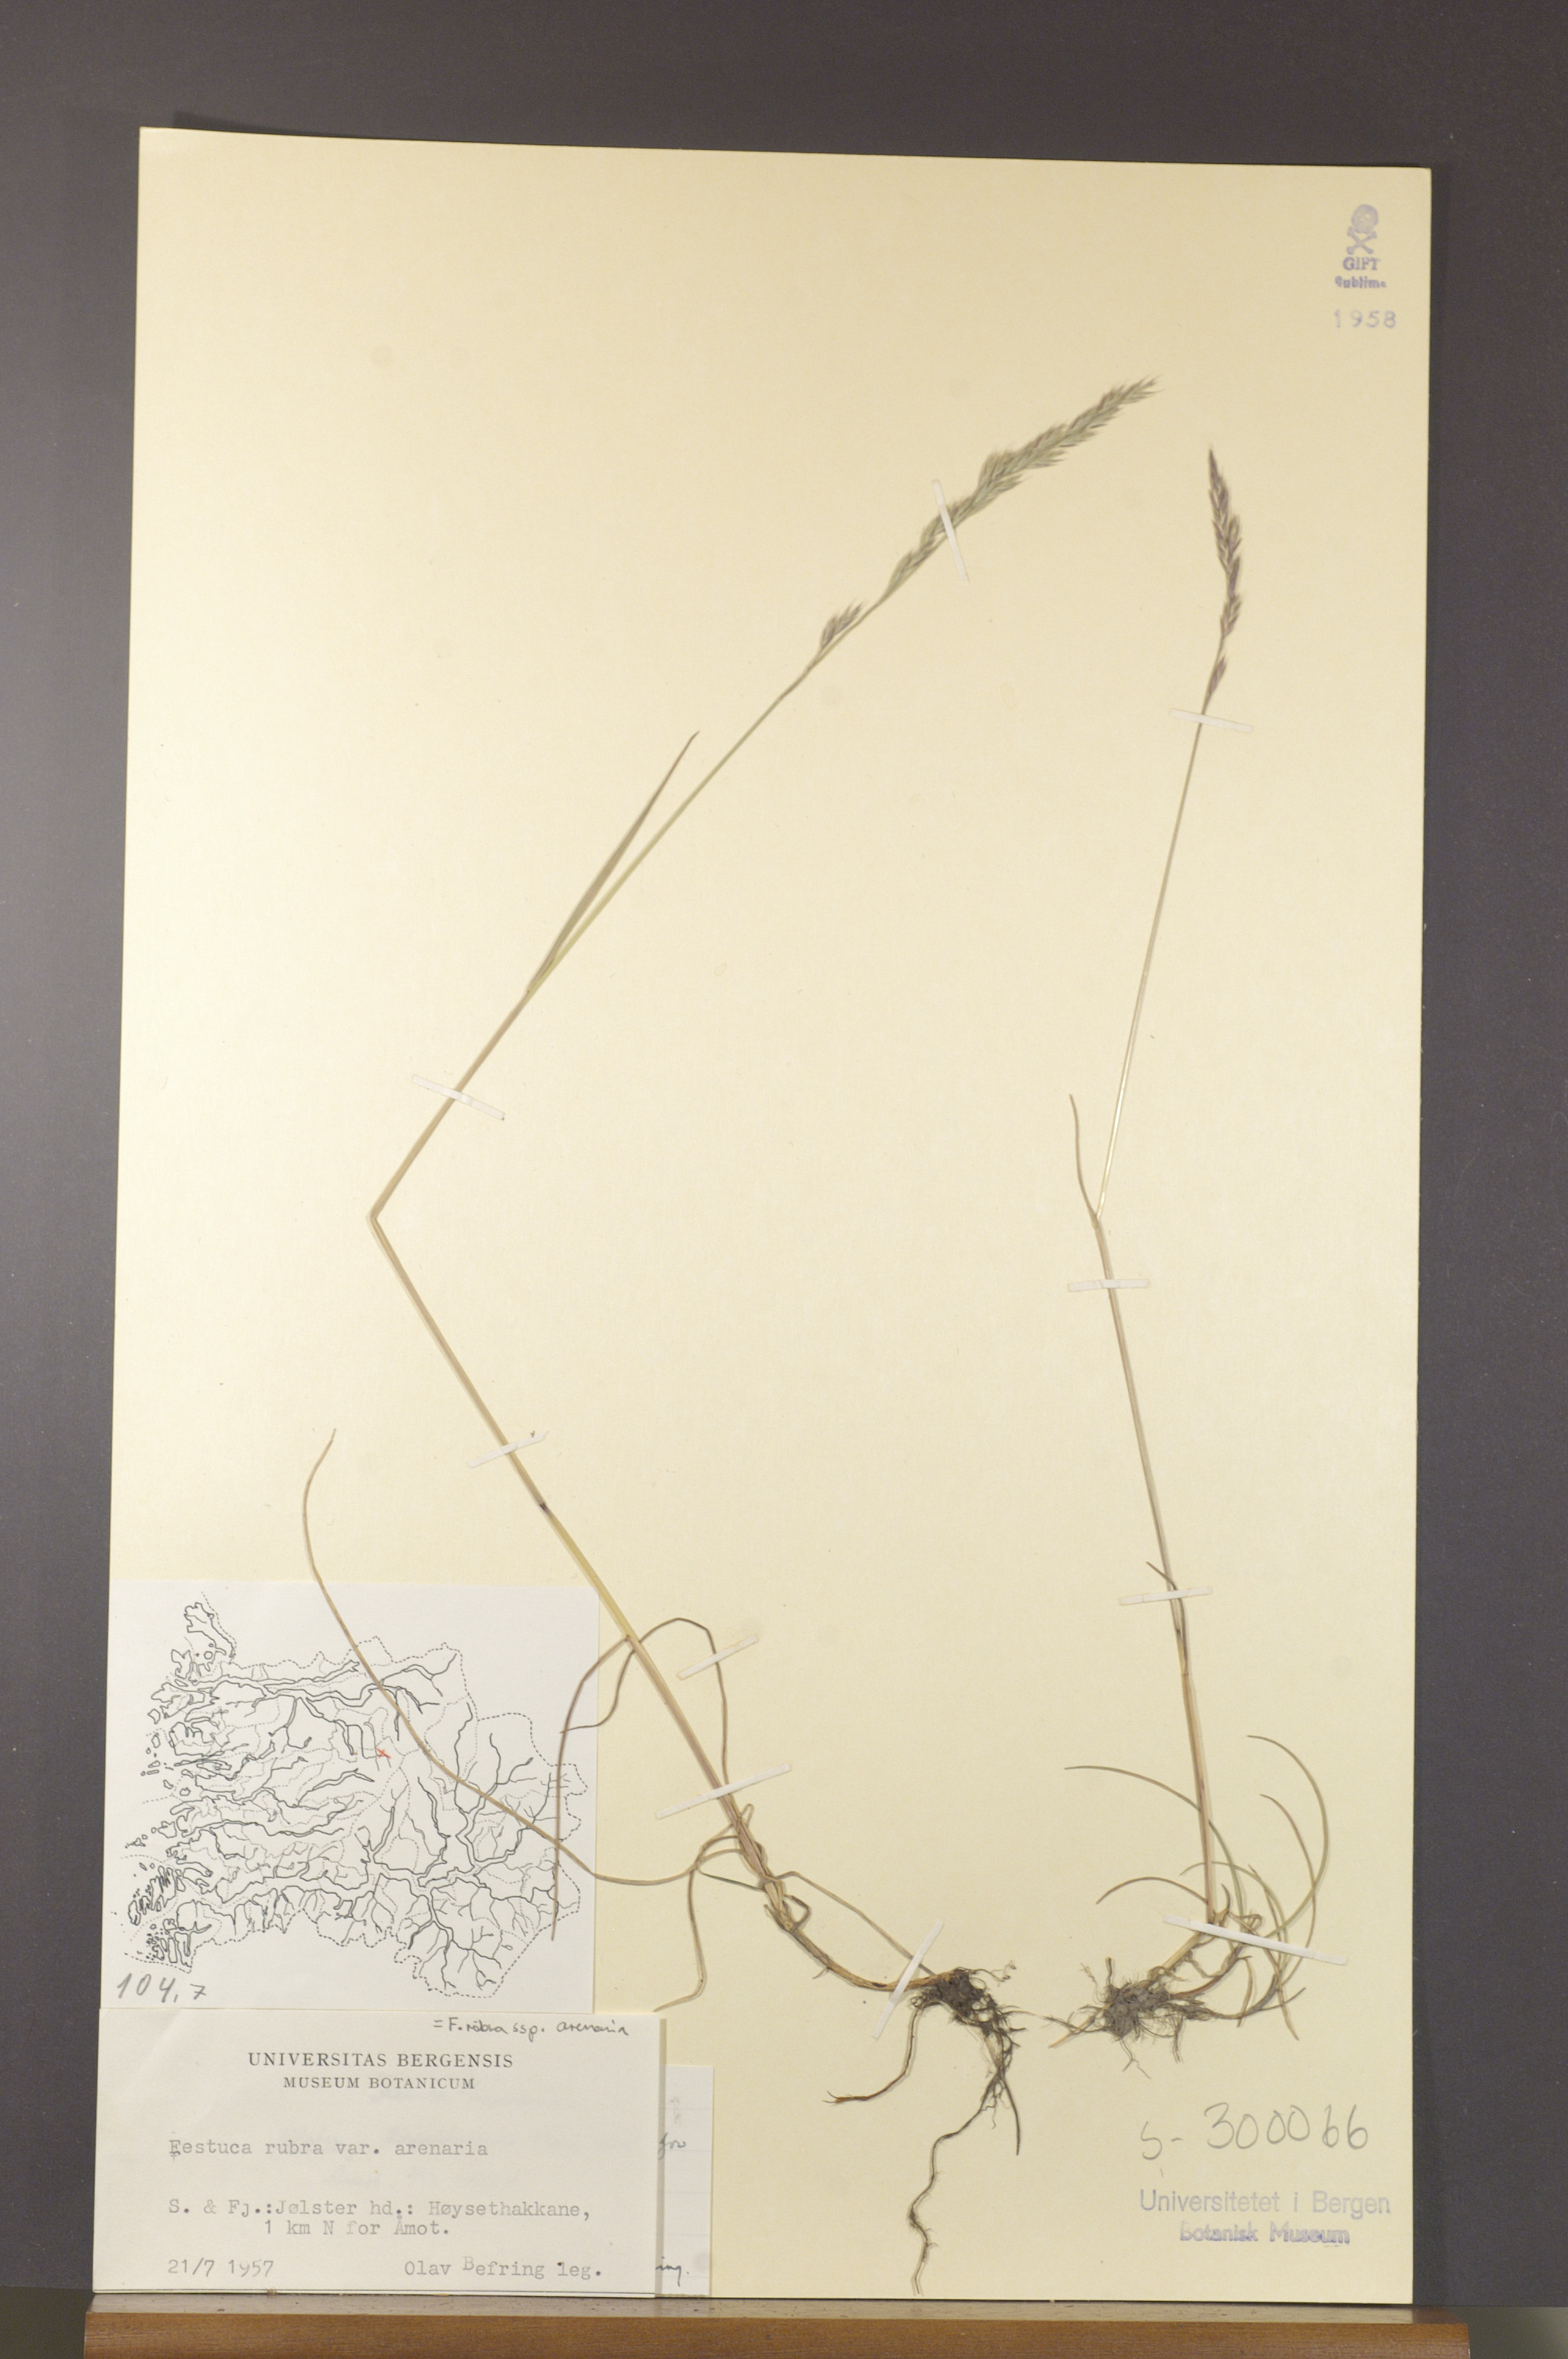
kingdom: Plantae
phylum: Tracheophyta
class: Liliopsida
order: Poales
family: Poaceae
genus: Festuca
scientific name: Festuca rubra
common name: Red fescue
